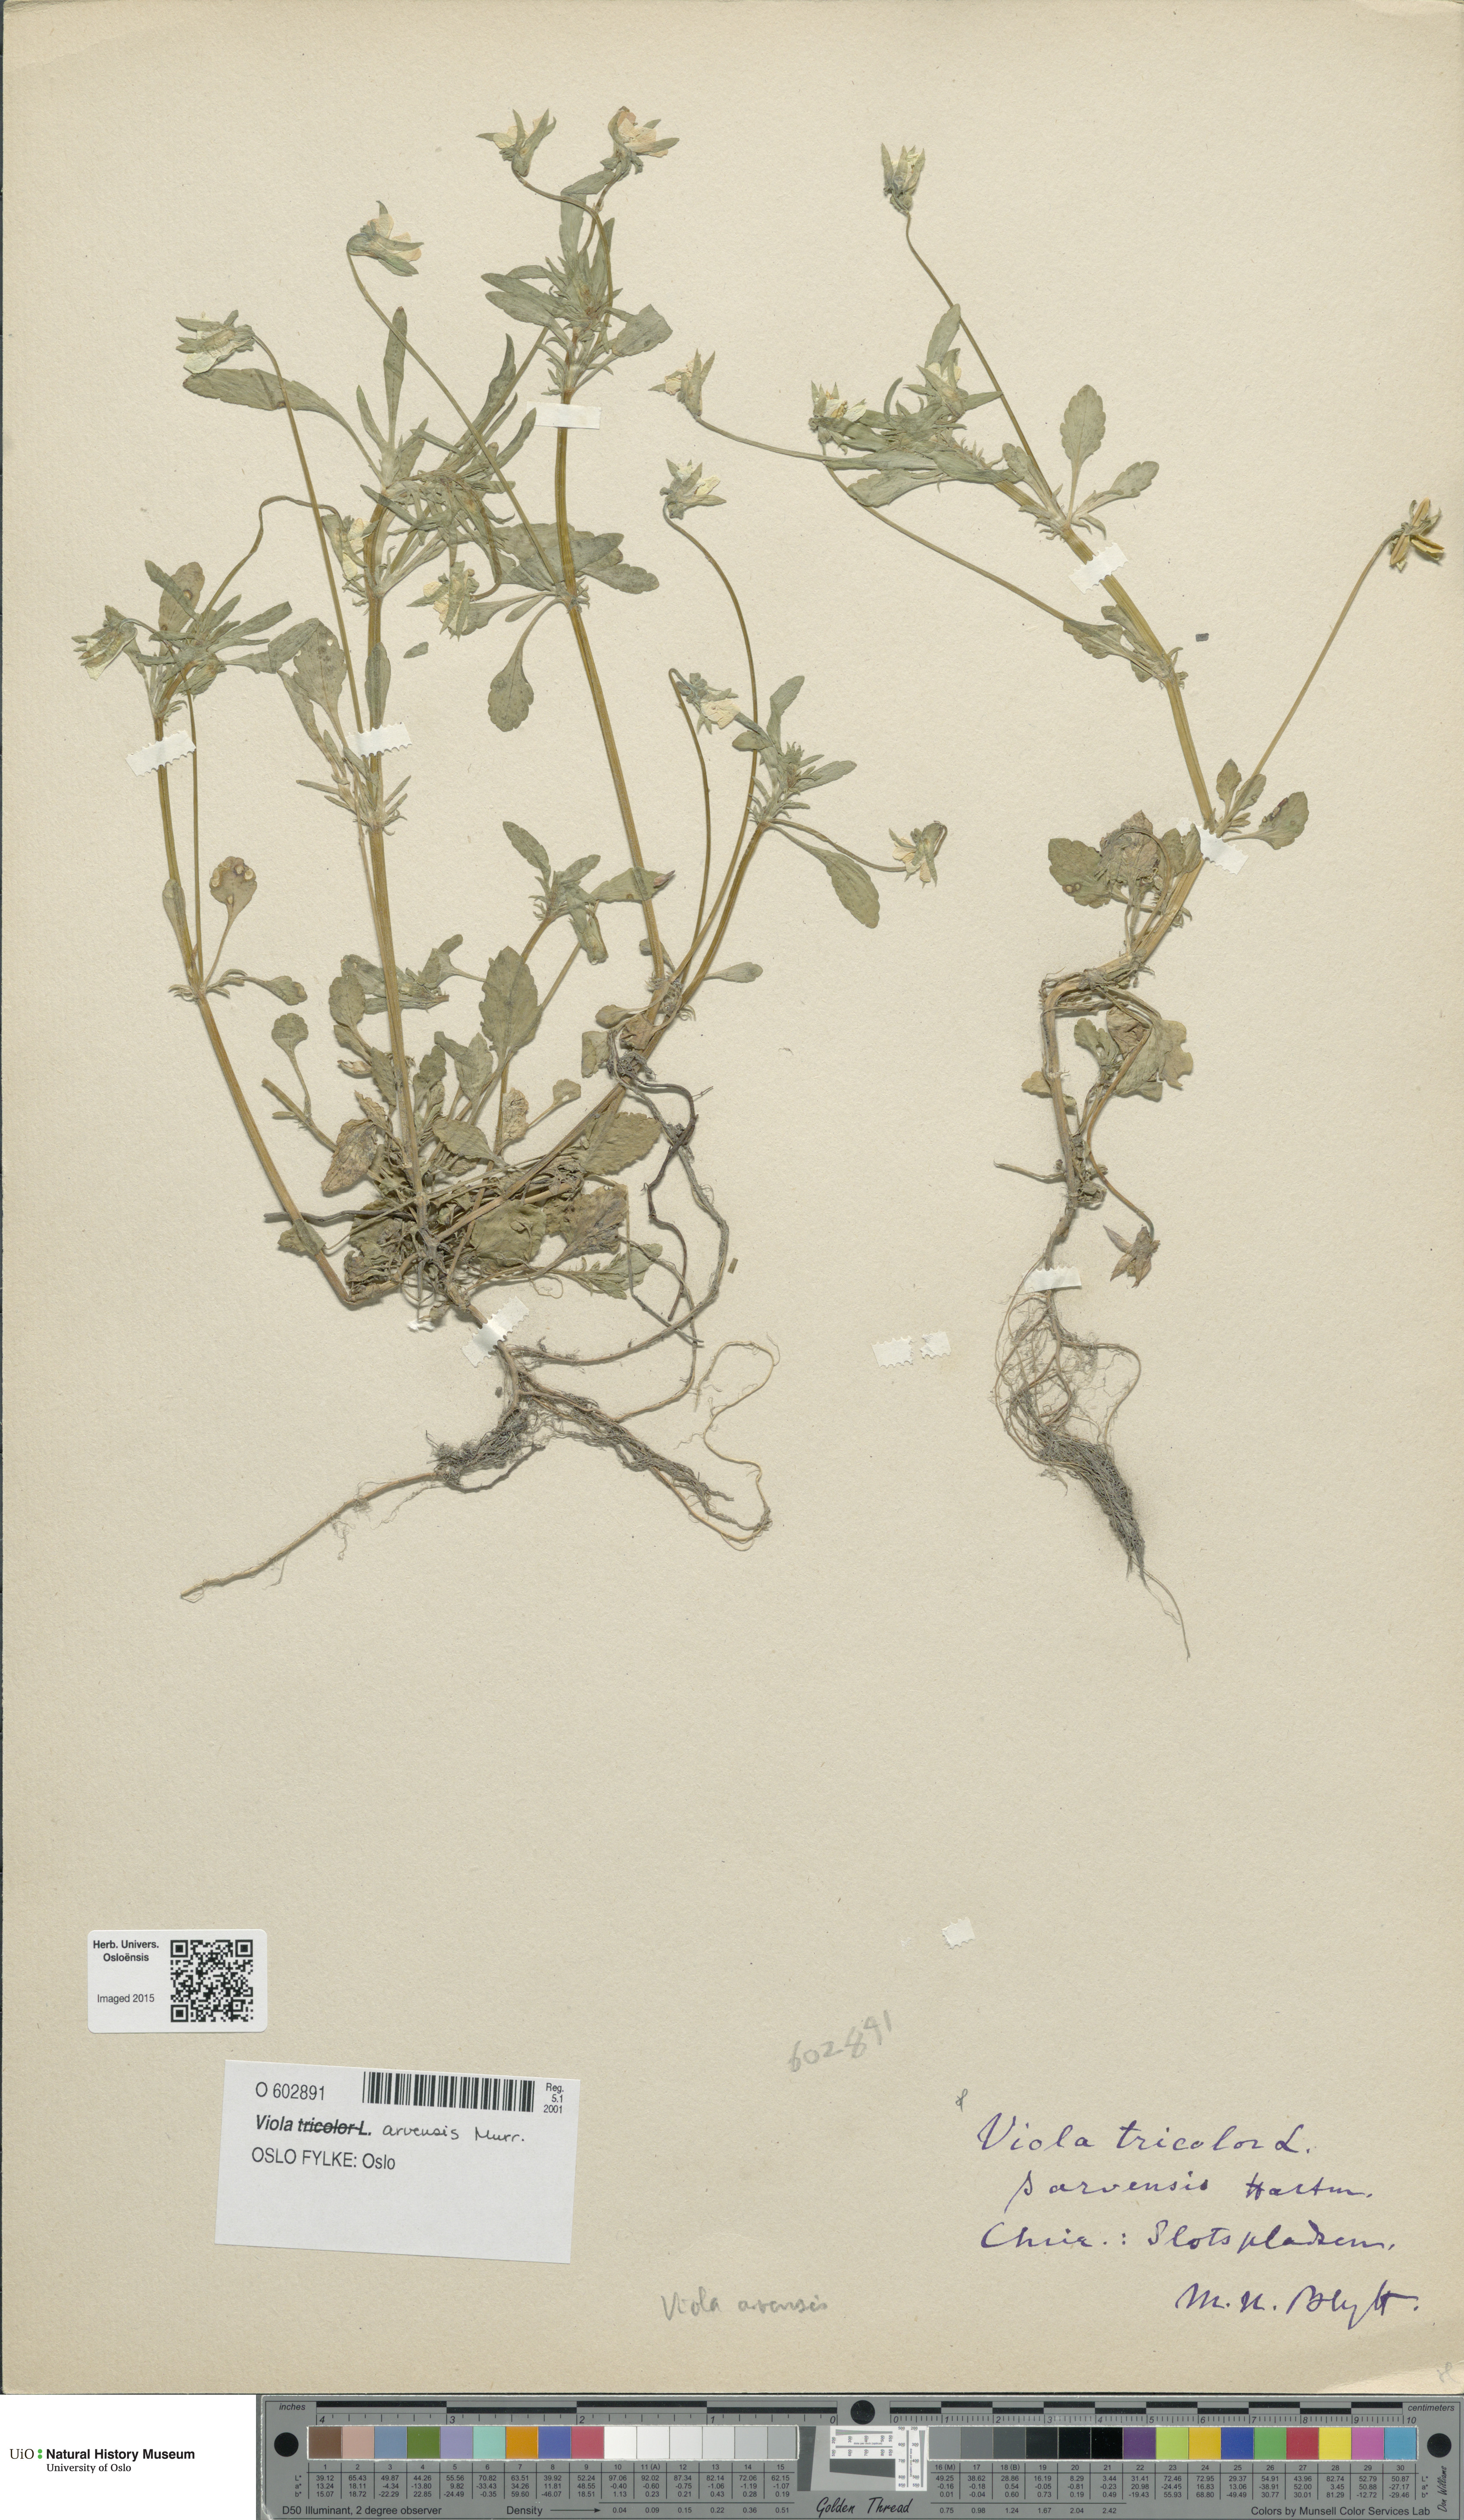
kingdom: Plantae
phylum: Tracheophyta
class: Magnoliopsida
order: Malpighiales
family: Violaceae
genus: Viola
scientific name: Viola arvensis
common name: Field pansy
